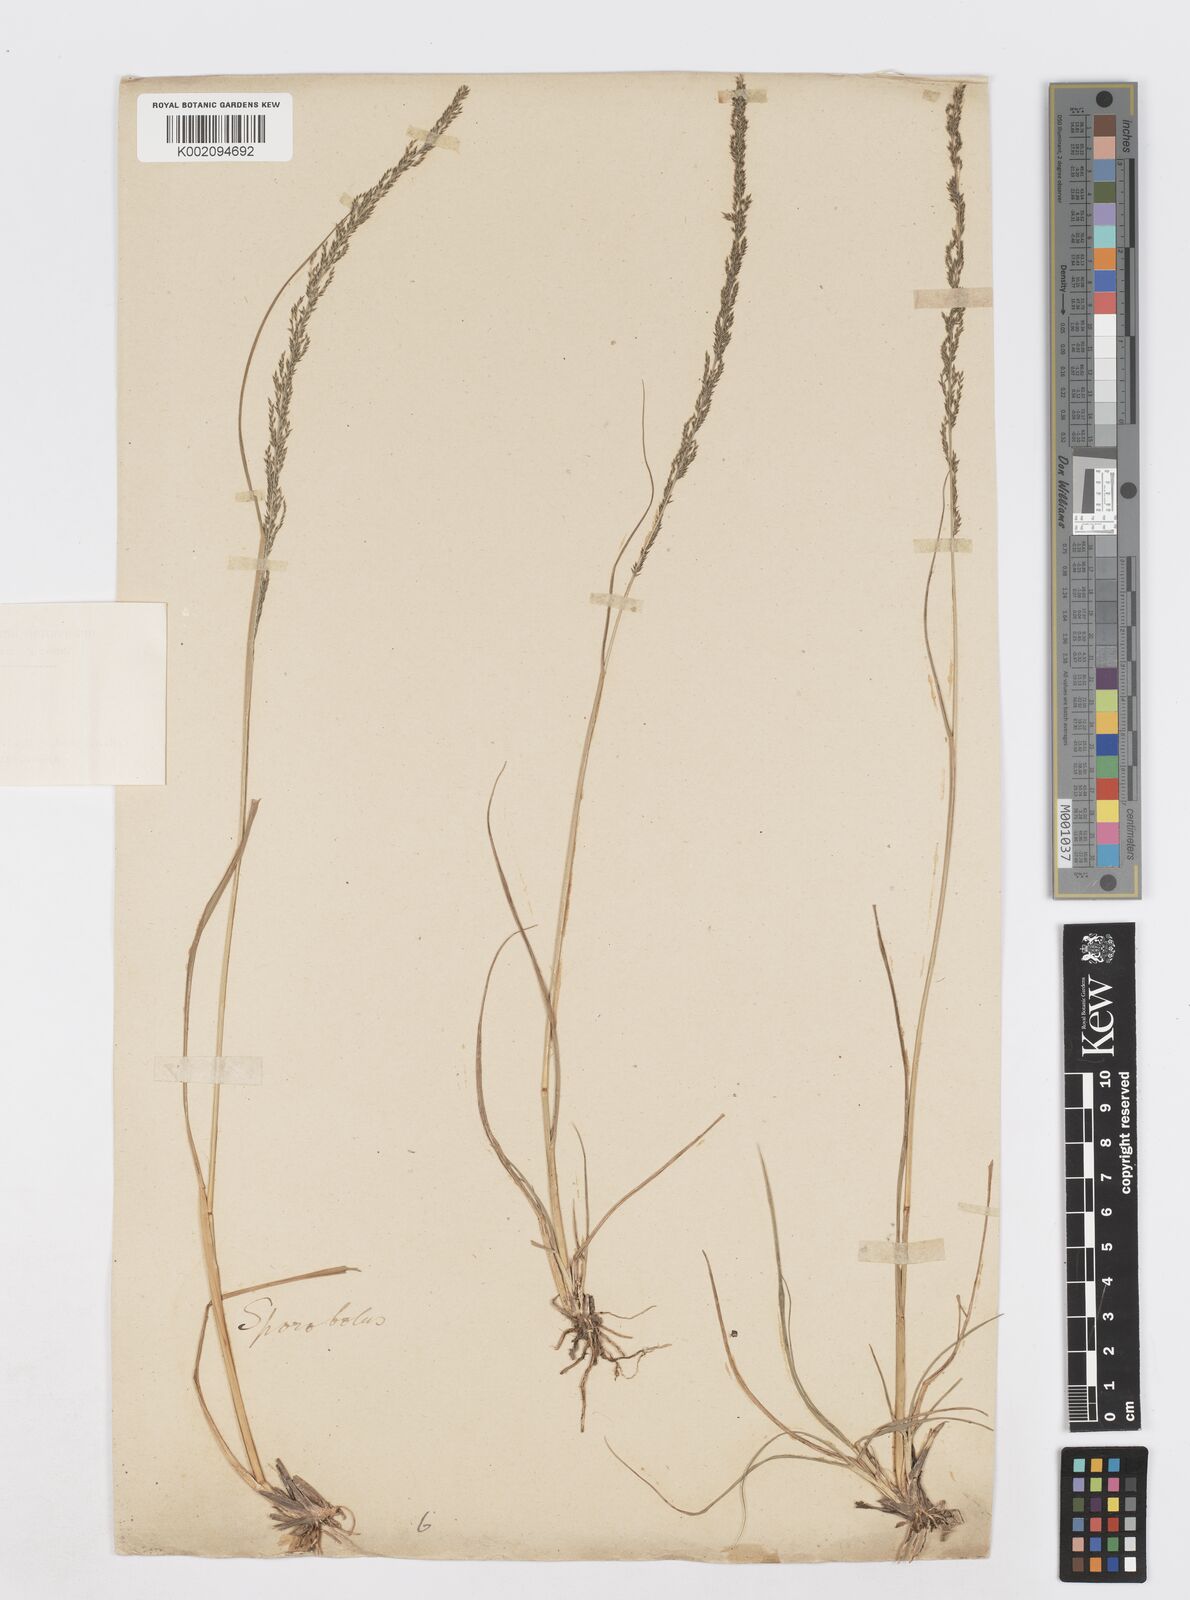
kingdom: Plantae
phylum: Tracheophyta
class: Liliopsida
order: Poales
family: Poaceae
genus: Sporobolus
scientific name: Sporobolus
